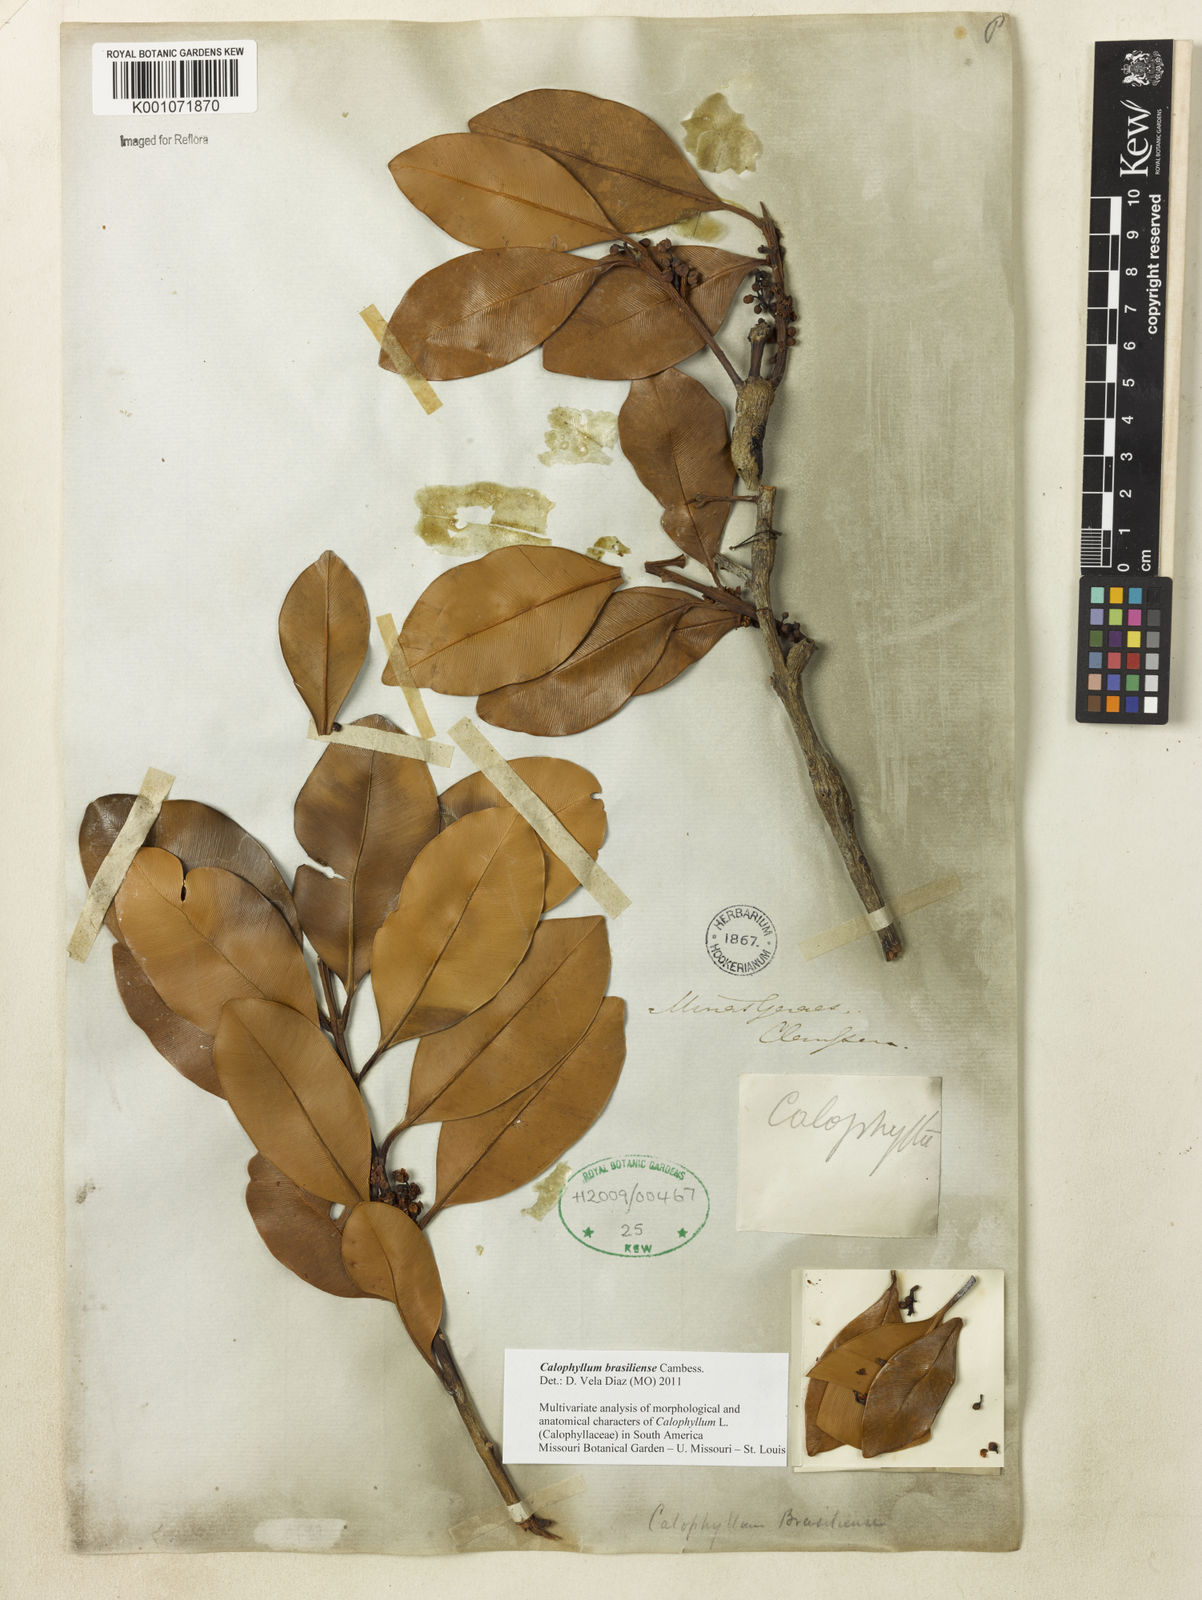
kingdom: Plantae
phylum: Tracheophyta
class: Magnoliopsida
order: Malpighiales
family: Calophyllaceae
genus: Calophyllum
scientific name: Calophyllum brasiliense
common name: Santa maria
